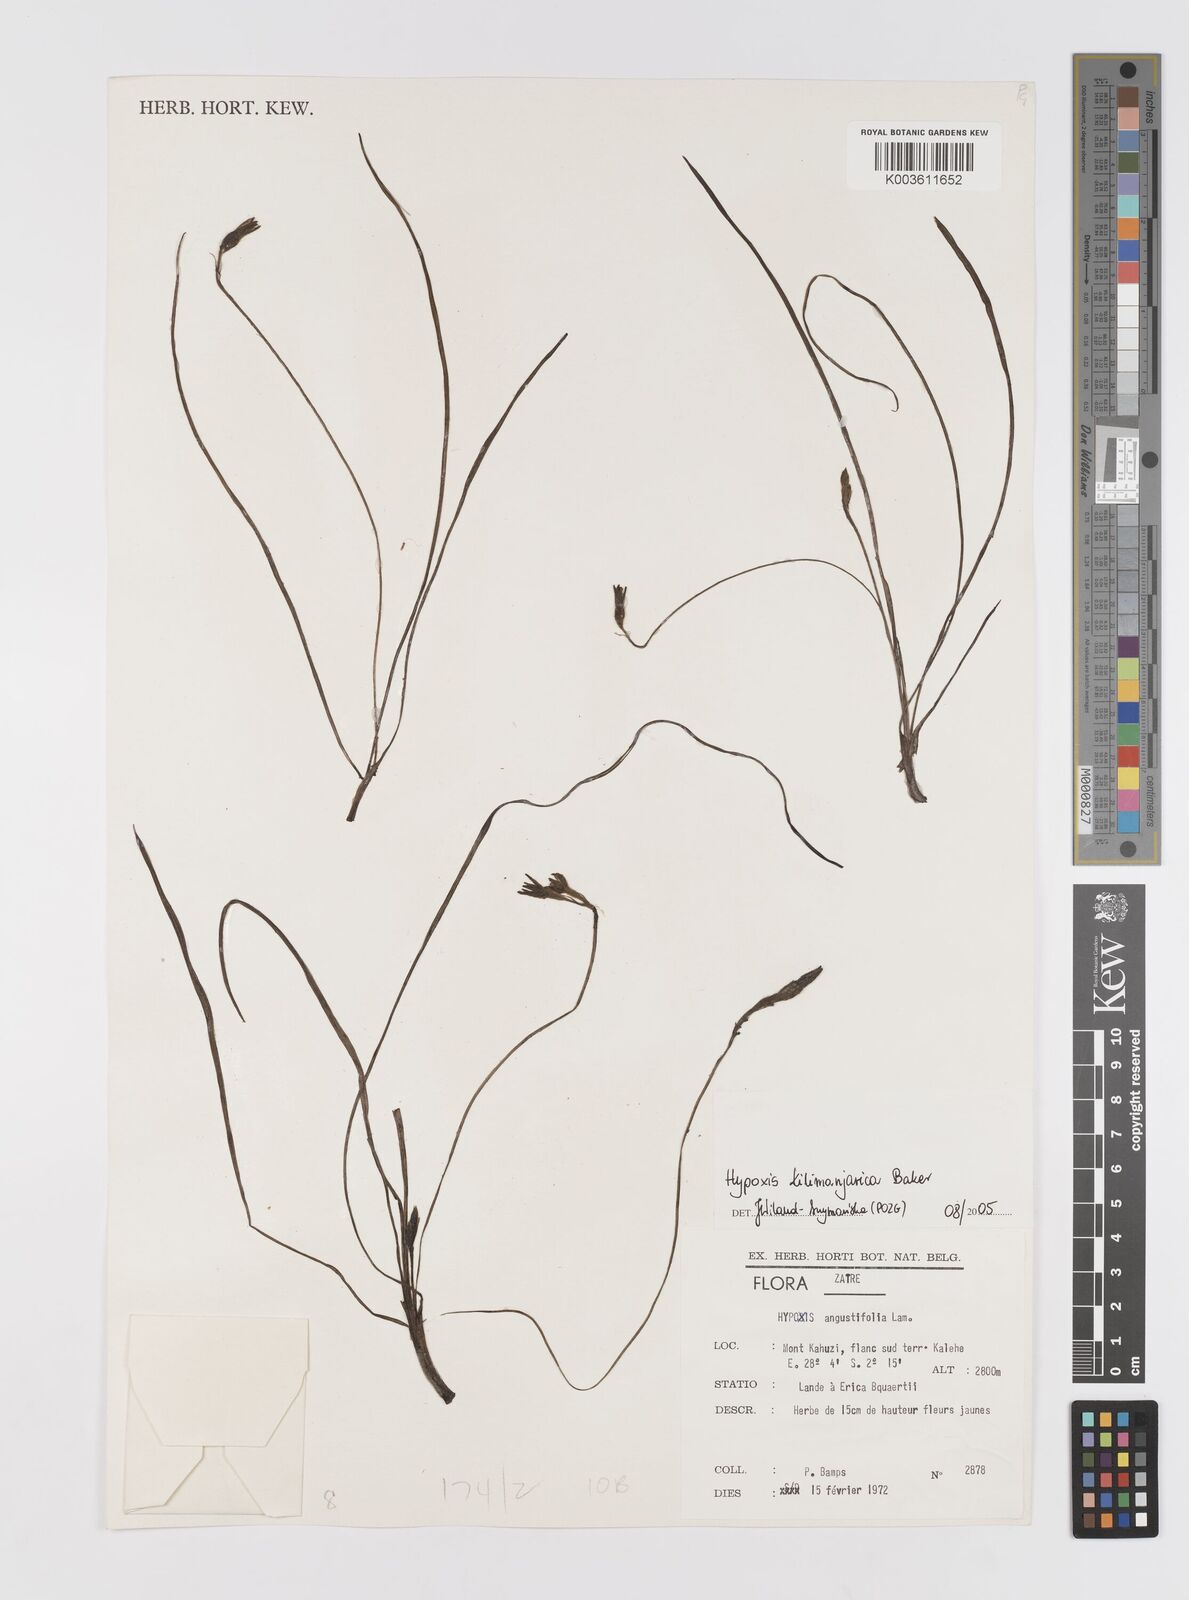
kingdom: Plantae
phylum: Tracheophyta
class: Liliopsida
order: Asparagales
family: Hypoxidaceae
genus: Hypoxis
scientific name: Hypoxis kilimanjarica
